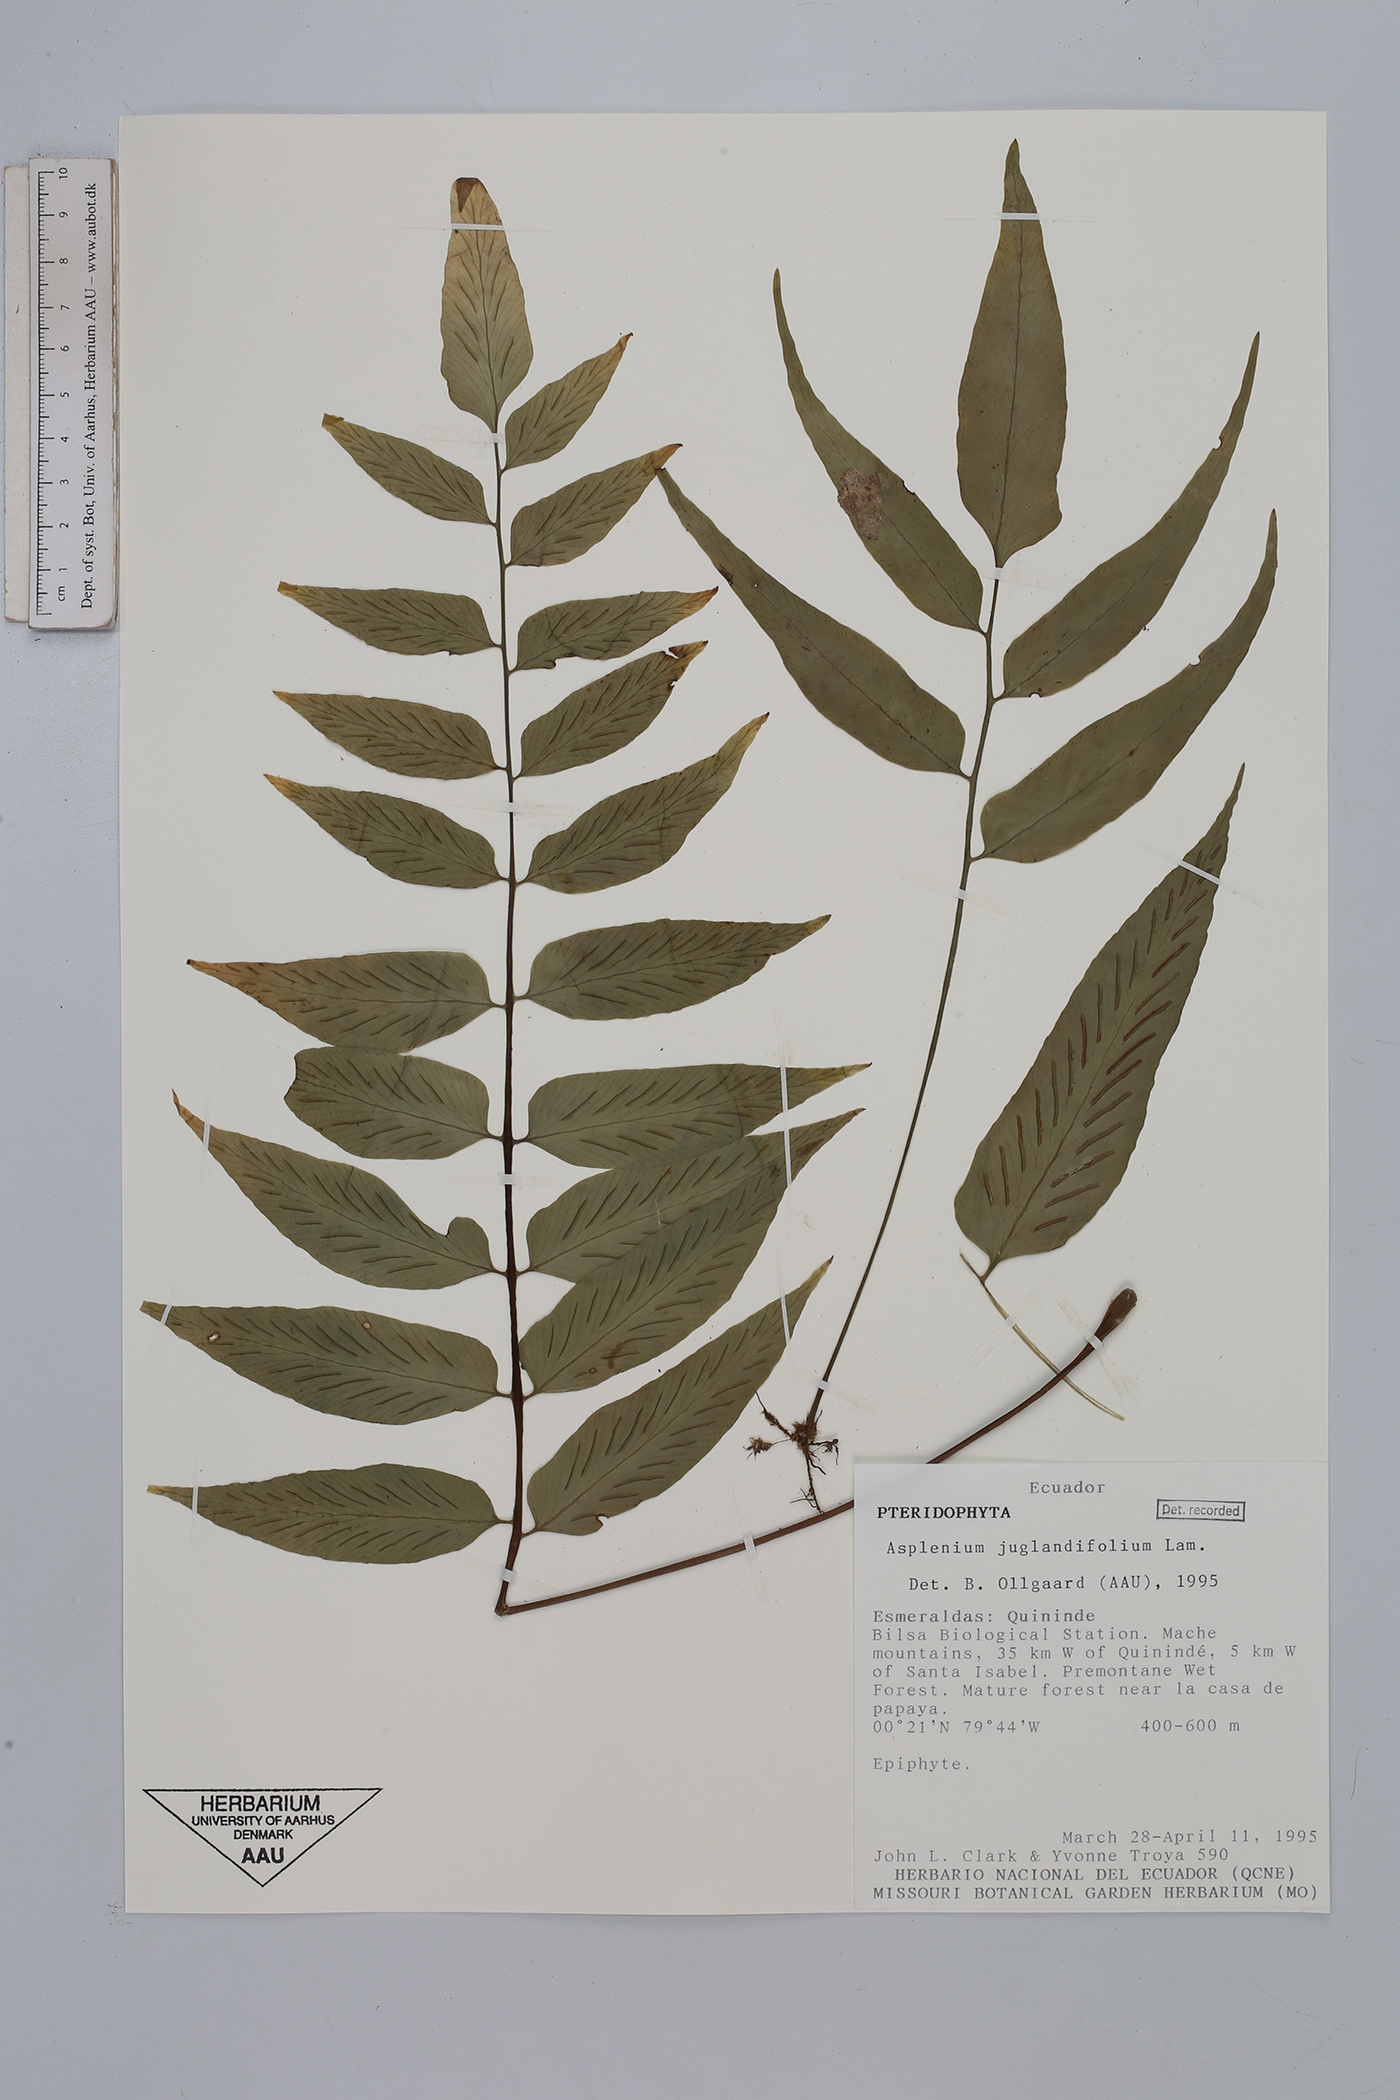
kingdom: Plantae
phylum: Tracheophyta
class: Polypodiopsida
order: Polypodiales
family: Aspleniaceae
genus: Asplenium
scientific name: Asplenium juglandifolium
